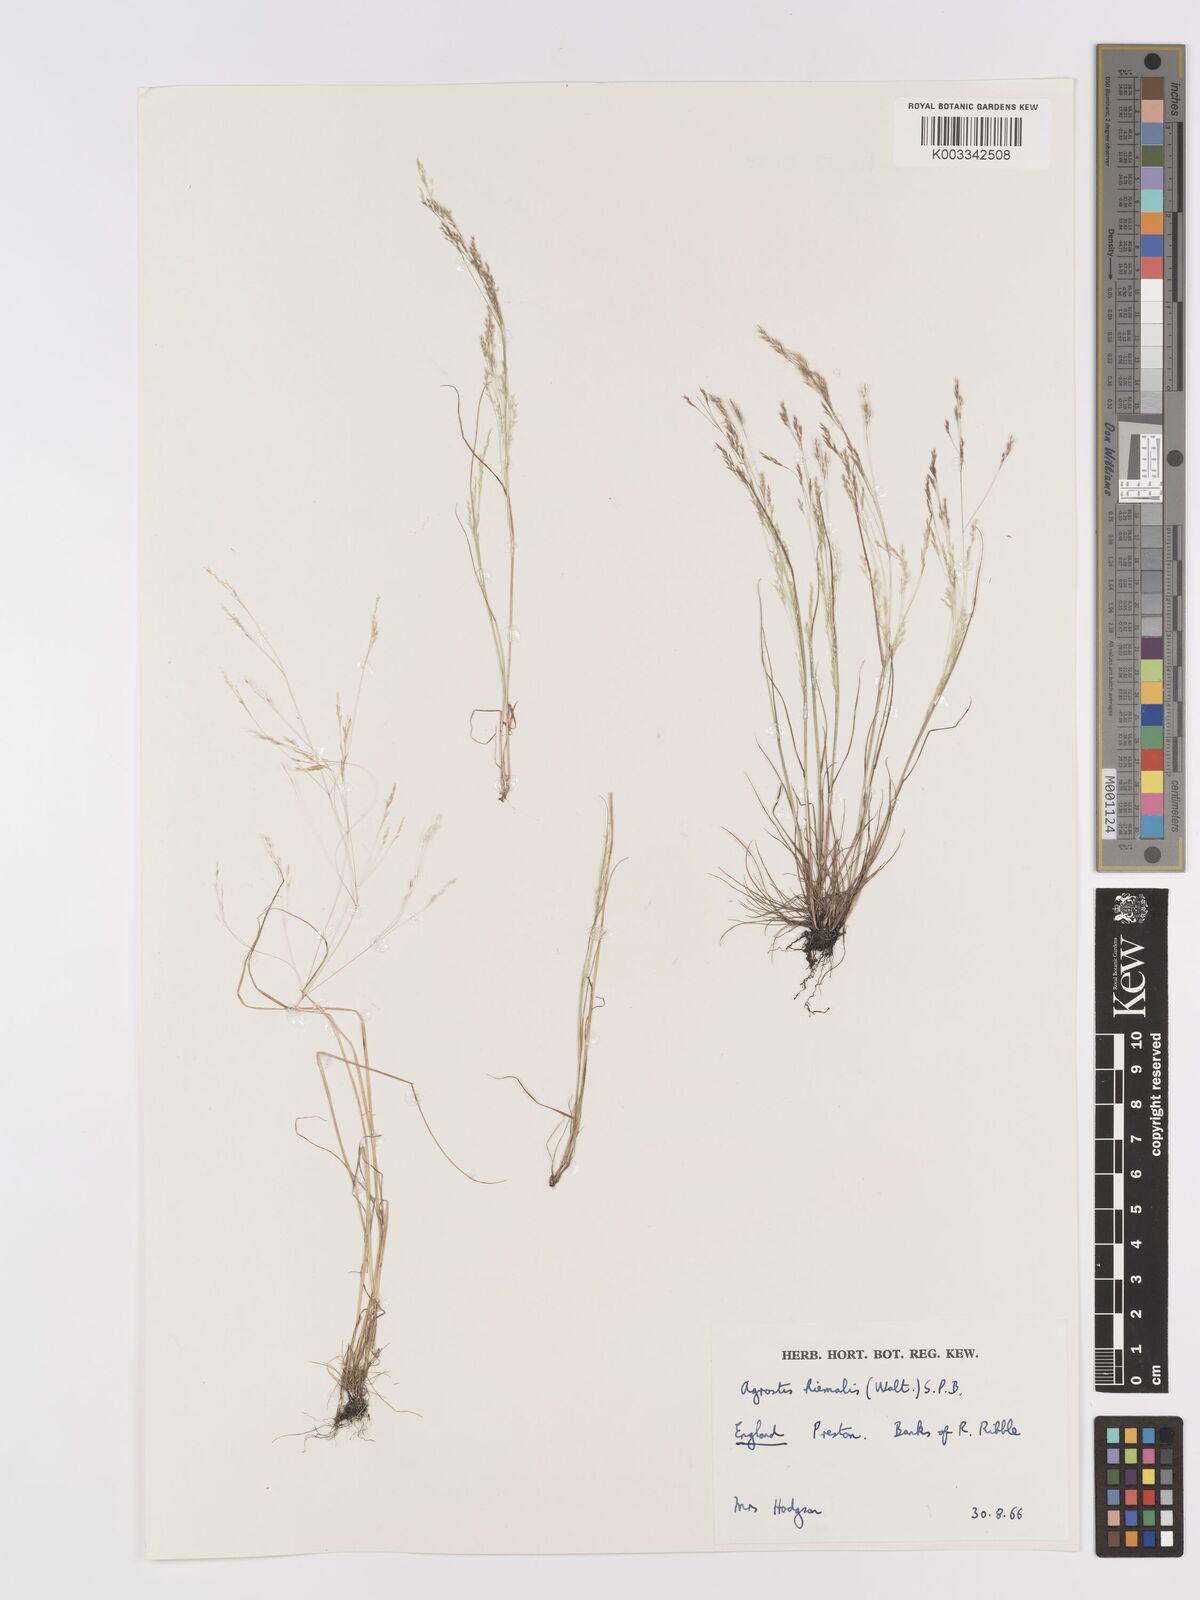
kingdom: Plantae
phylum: Tracheophyta
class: Liliopsida
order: Poales
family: Poaceae
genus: Agrostis
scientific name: Agrostis hyemalis
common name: Small bent
